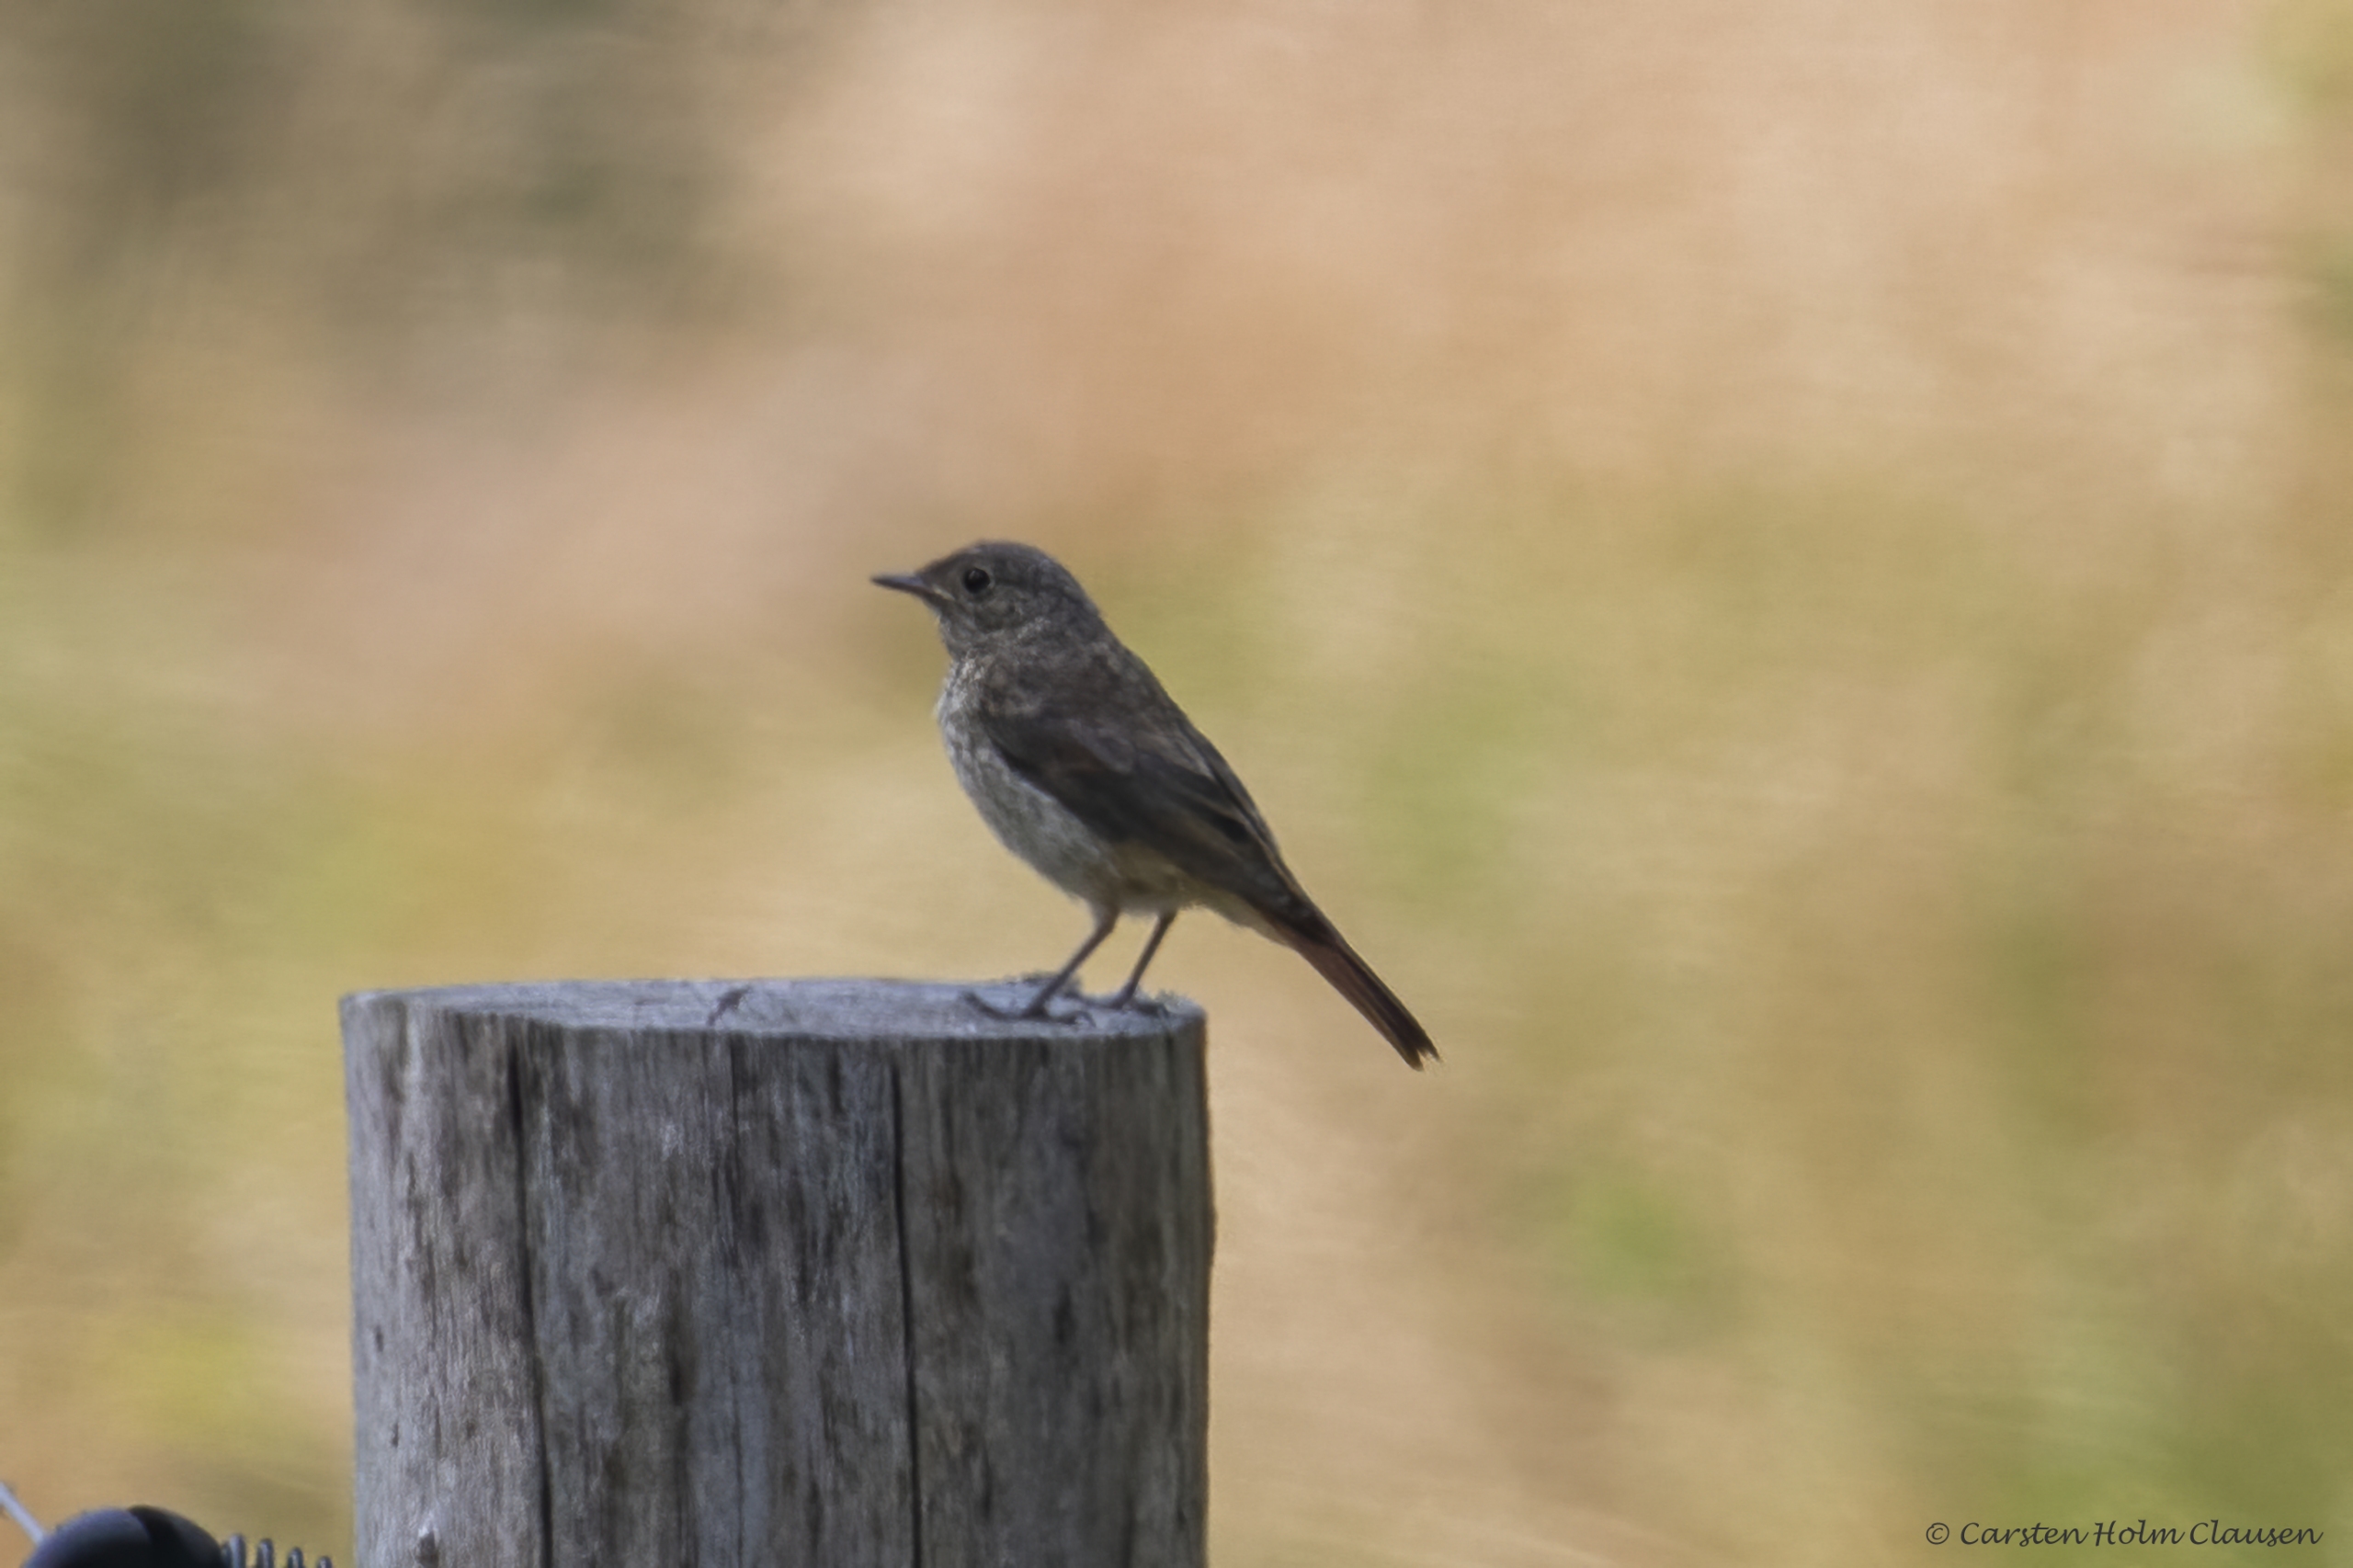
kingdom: Animalia
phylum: Chordata
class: Aves
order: Passeriformes
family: Muscicapidae
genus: Phoenicurus
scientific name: Phoenicurus phoenicurus
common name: Rødstjert
